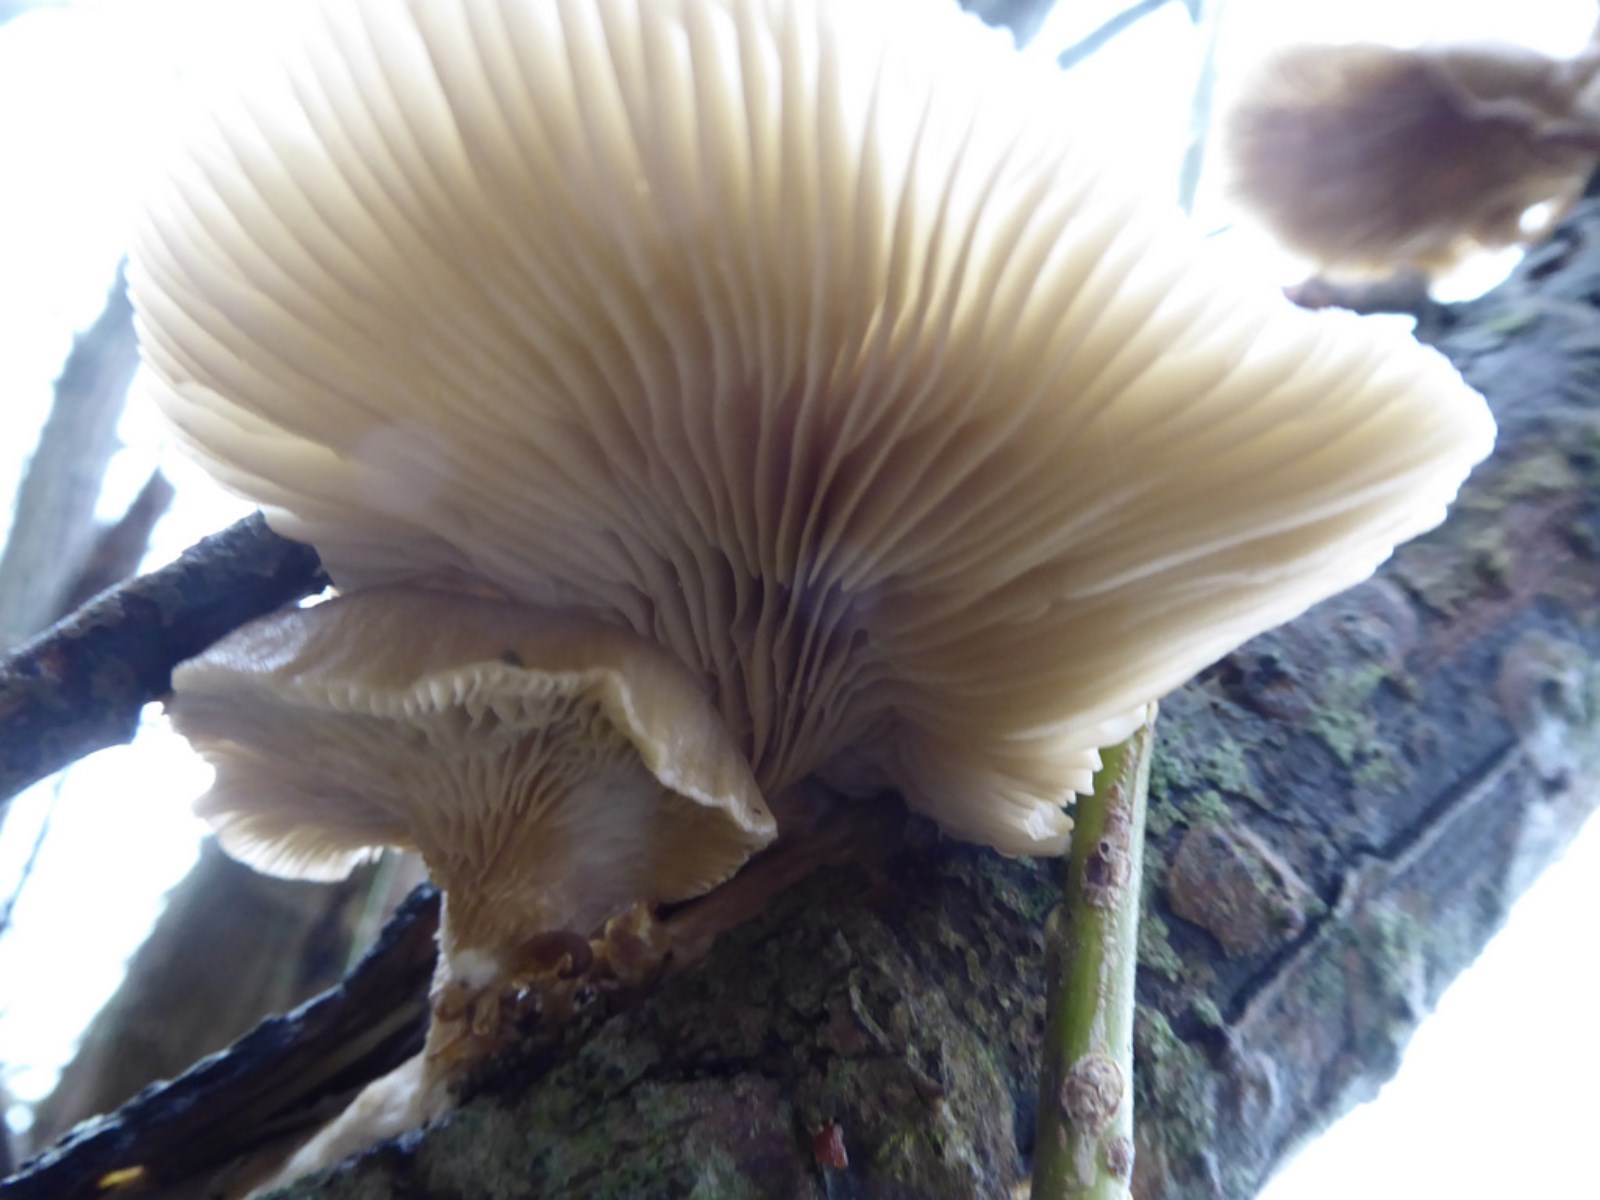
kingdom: Fungi
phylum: Basidiomycota
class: Agaricomycetes
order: Agaricales
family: Pleurotaceae
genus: Pleurotus
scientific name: Pleurotus ostreatus
